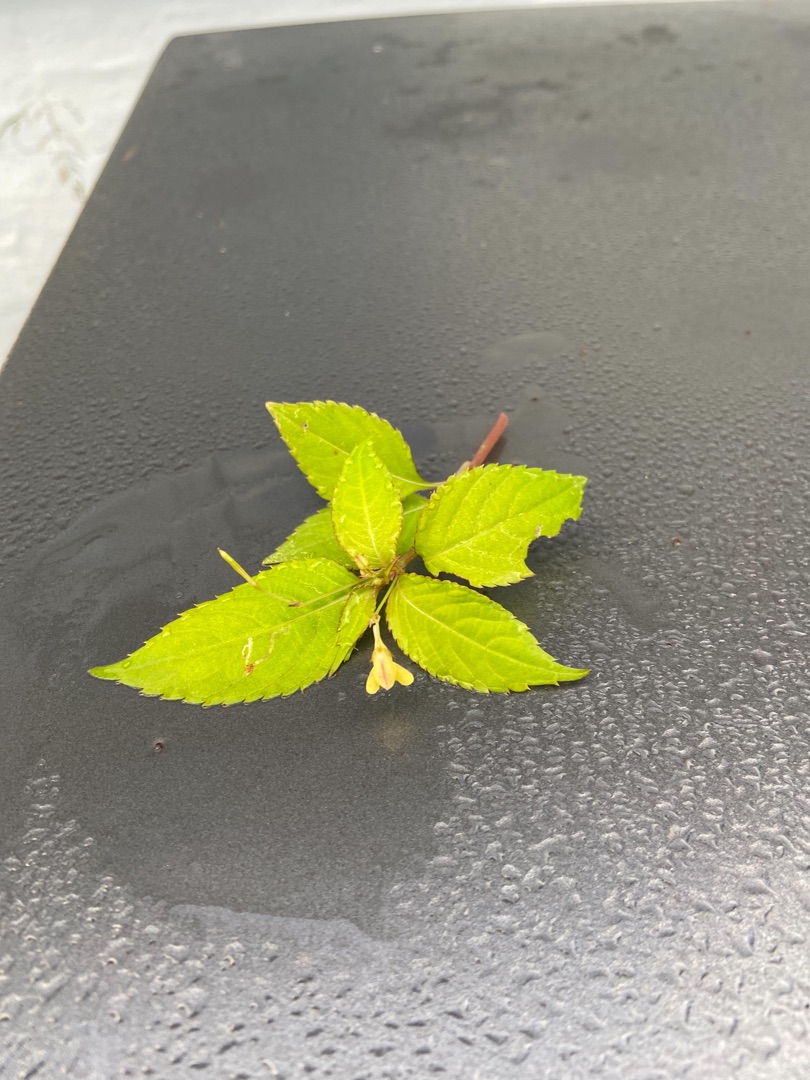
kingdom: Plantae
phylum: Tracheophyta
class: Magnoliopsida
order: Ericales
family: Balsaminaceae
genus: Impatiens
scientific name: Impatiens parviflora
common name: Småblomstret balsamin
